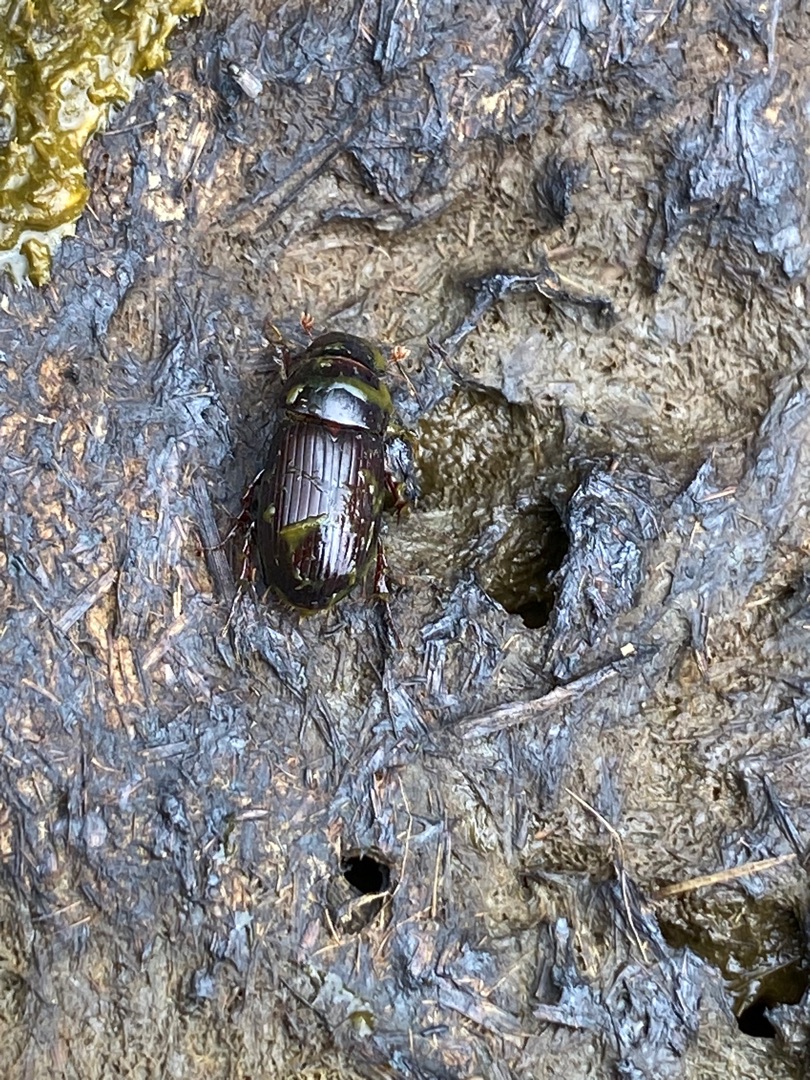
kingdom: Animalia
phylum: Arthropoda
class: Insecta
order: Coleoptera
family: Scarabaeidae
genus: Acrossus
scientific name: Acrossus rufipes
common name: Rødbenet møgbille
